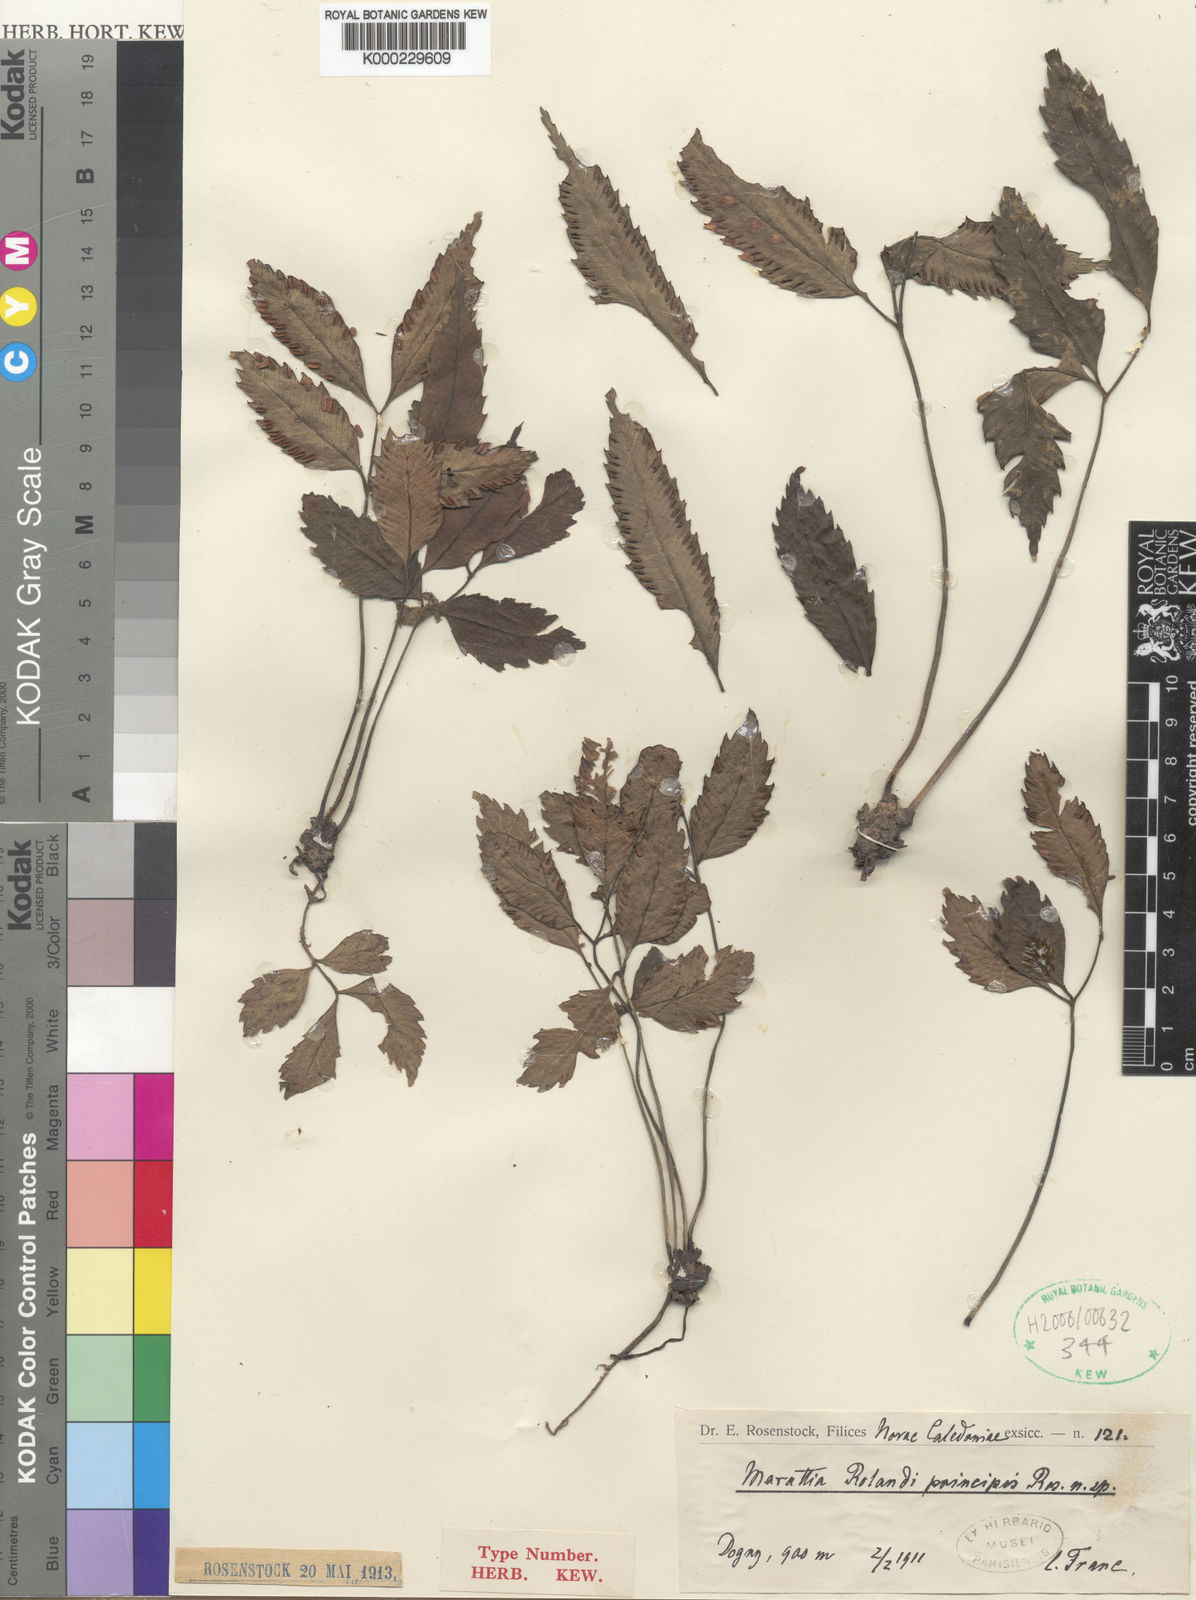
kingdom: Plantae
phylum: Tracheophyta
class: Polypodiopsida
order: Marattiales
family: Marattiaceae
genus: Ptisana
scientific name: Ptisana attenuata
